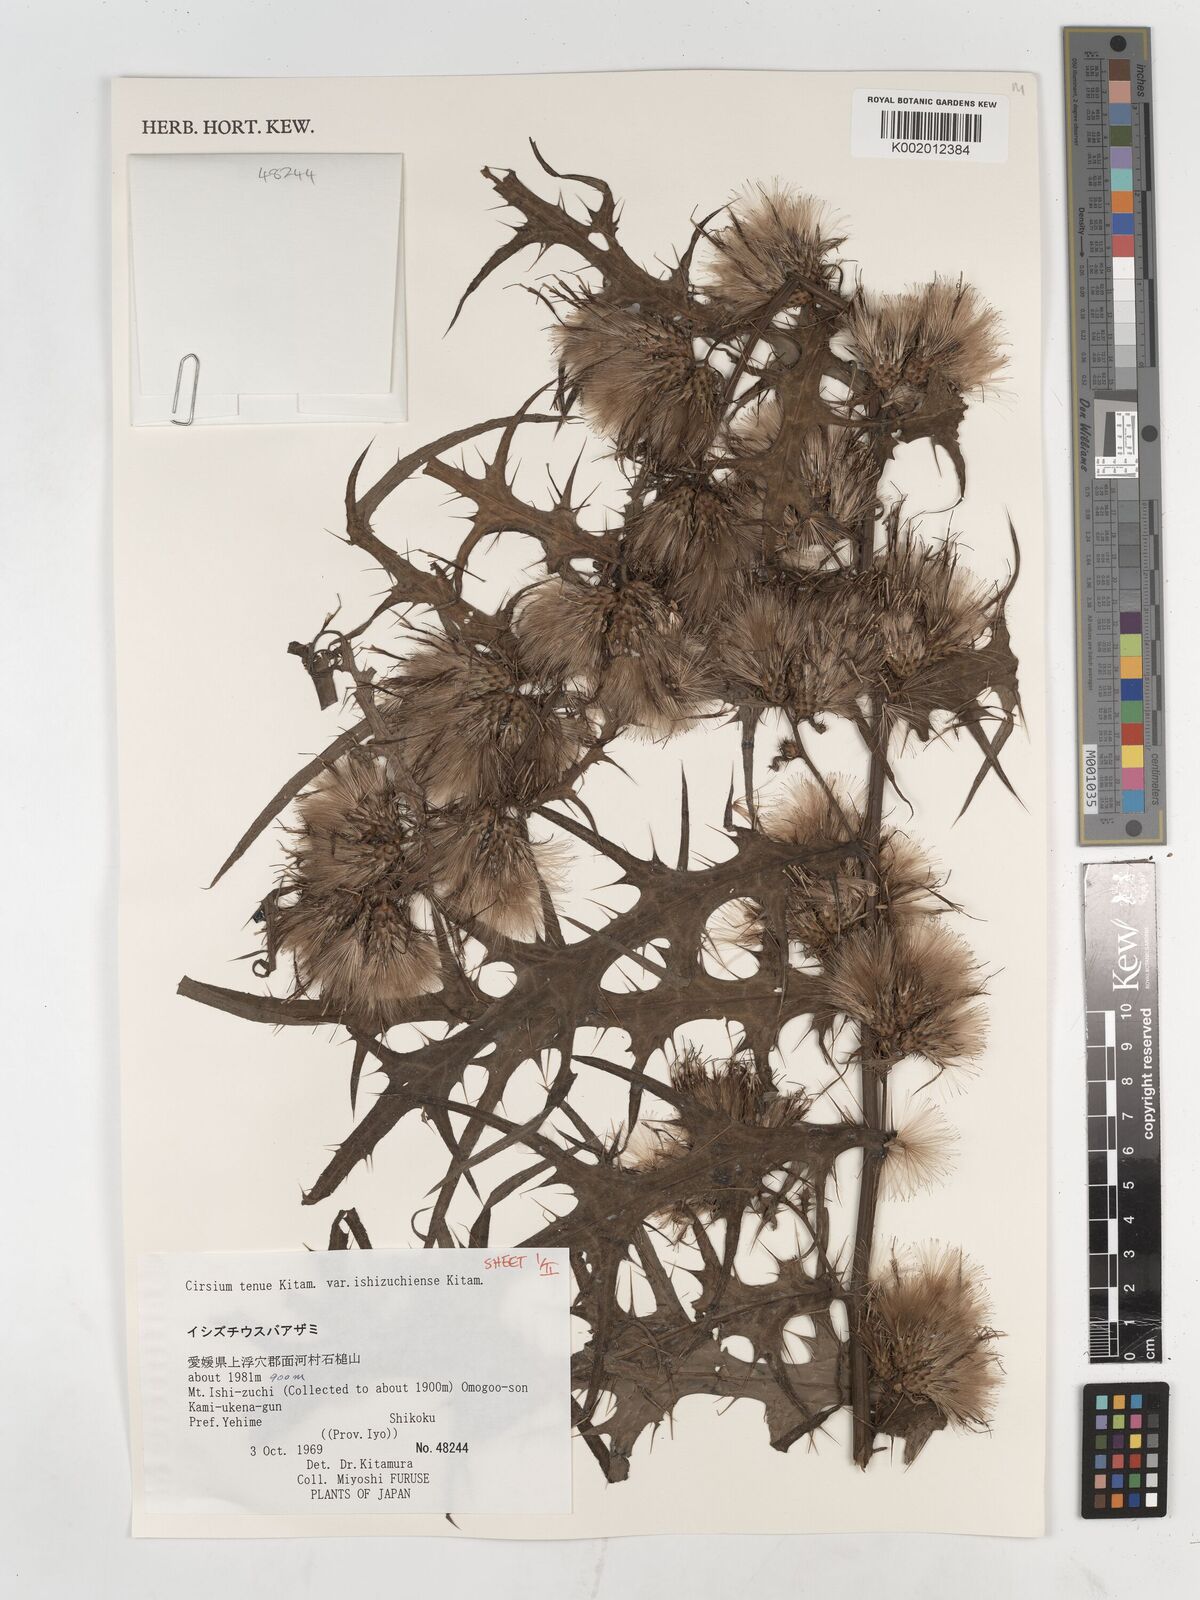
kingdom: Plantae
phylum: Tracheophyta
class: Magnoliopsida
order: Asterales
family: Asteraceae
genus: Cirsium
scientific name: Cirsium ishizuchiense
